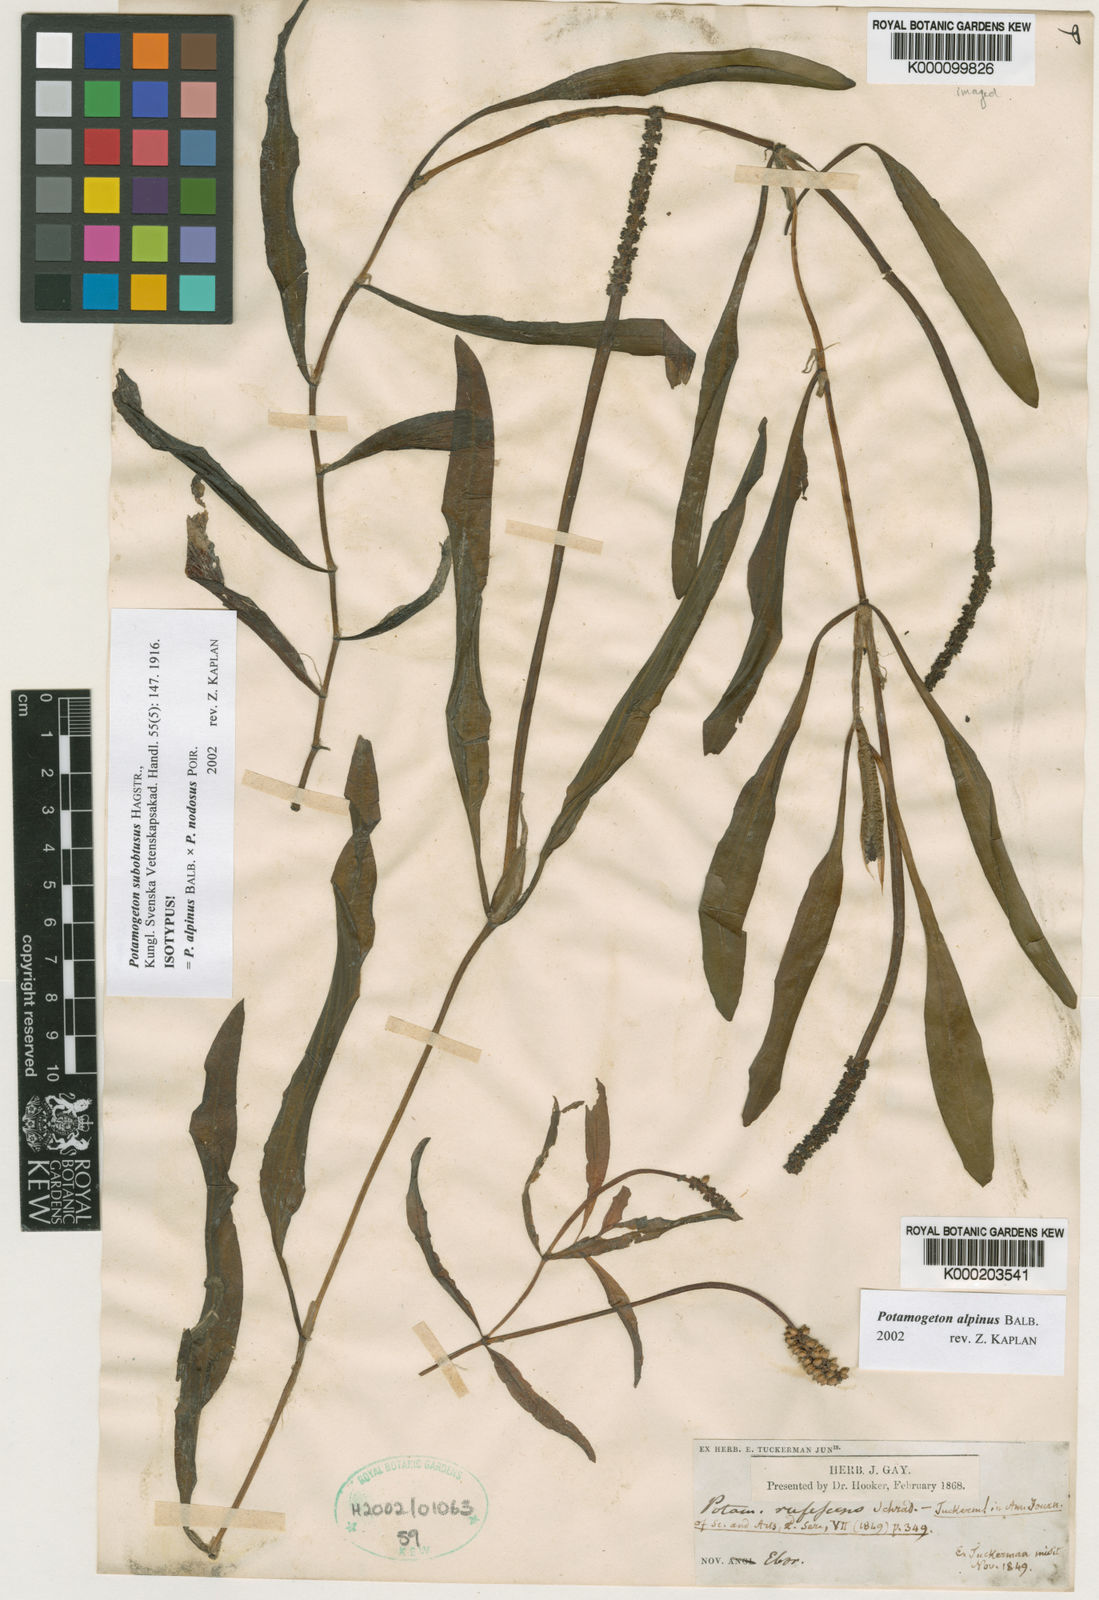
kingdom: Plantae
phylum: Tracheophyta
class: Liliopsida
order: Alismatales
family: Potamogetonaceae
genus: Potamogeton
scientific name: Potamogeton
